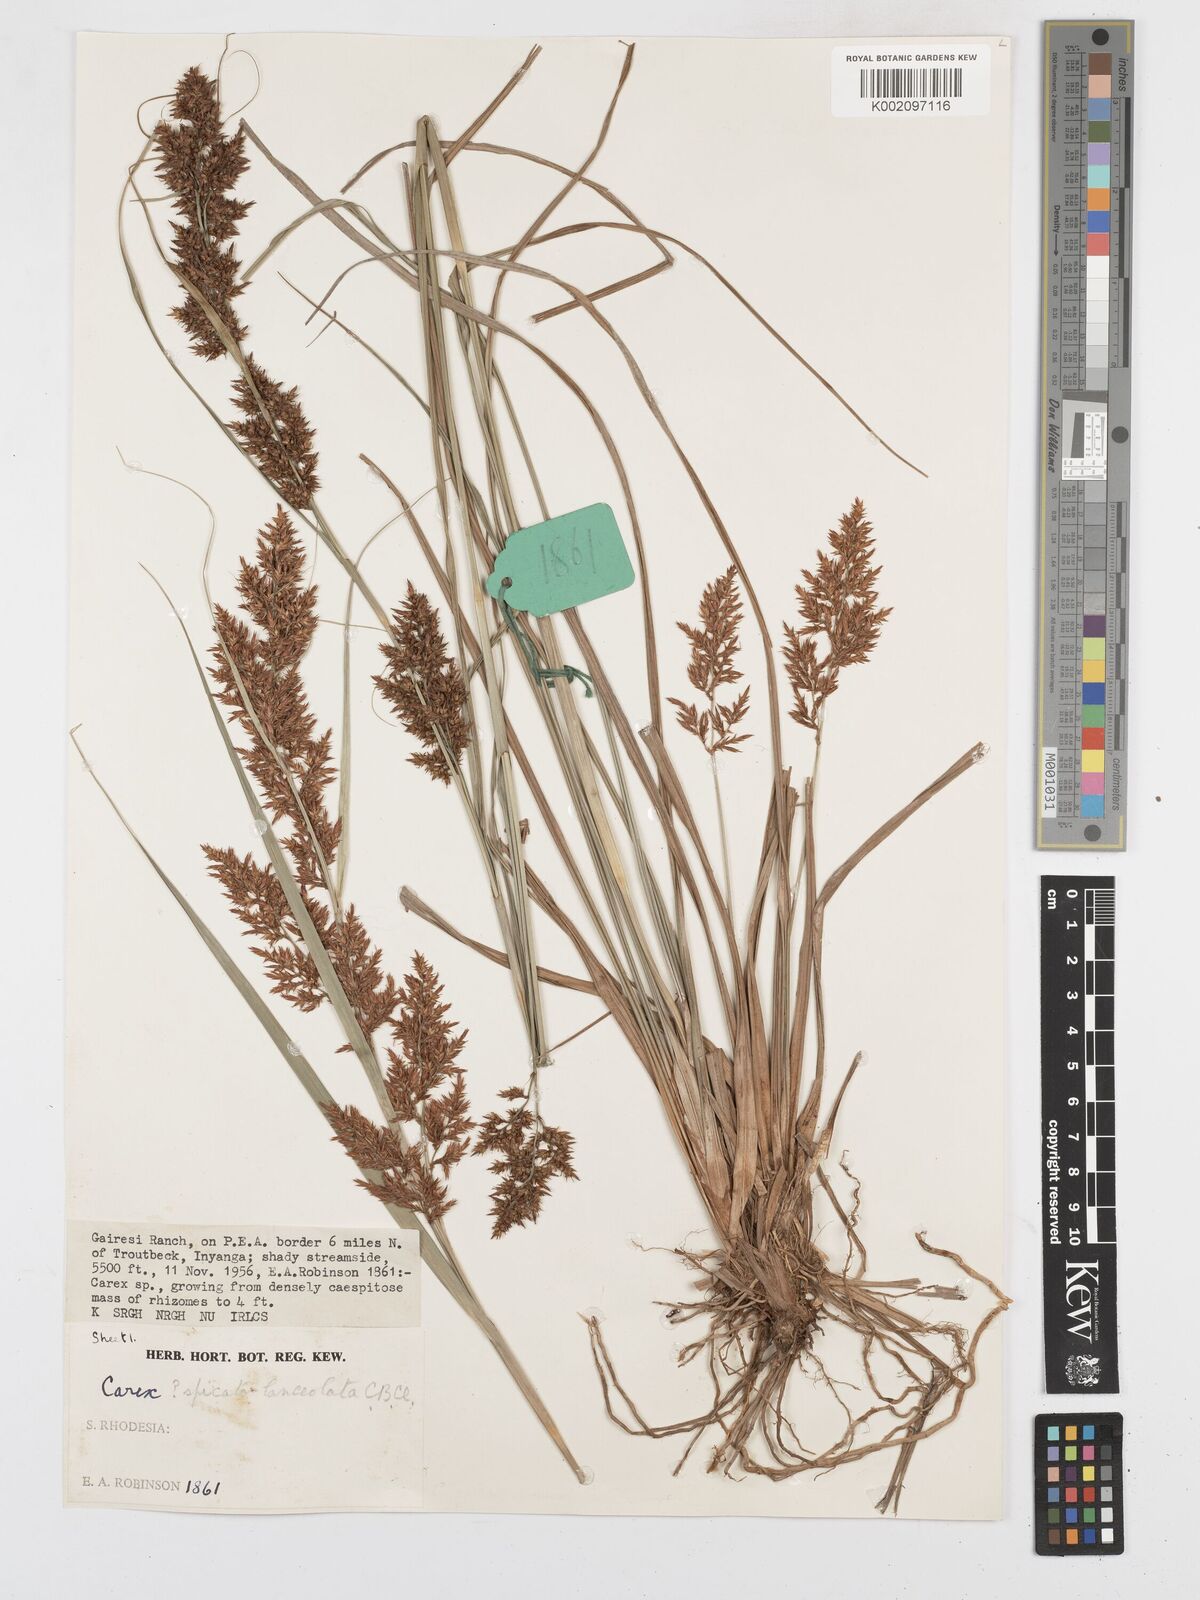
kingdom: Plantae
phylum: Tracheophyta
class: Liliopsida
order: Poales
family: Cyperaceae
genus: Carex
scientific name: Carex steudneri
